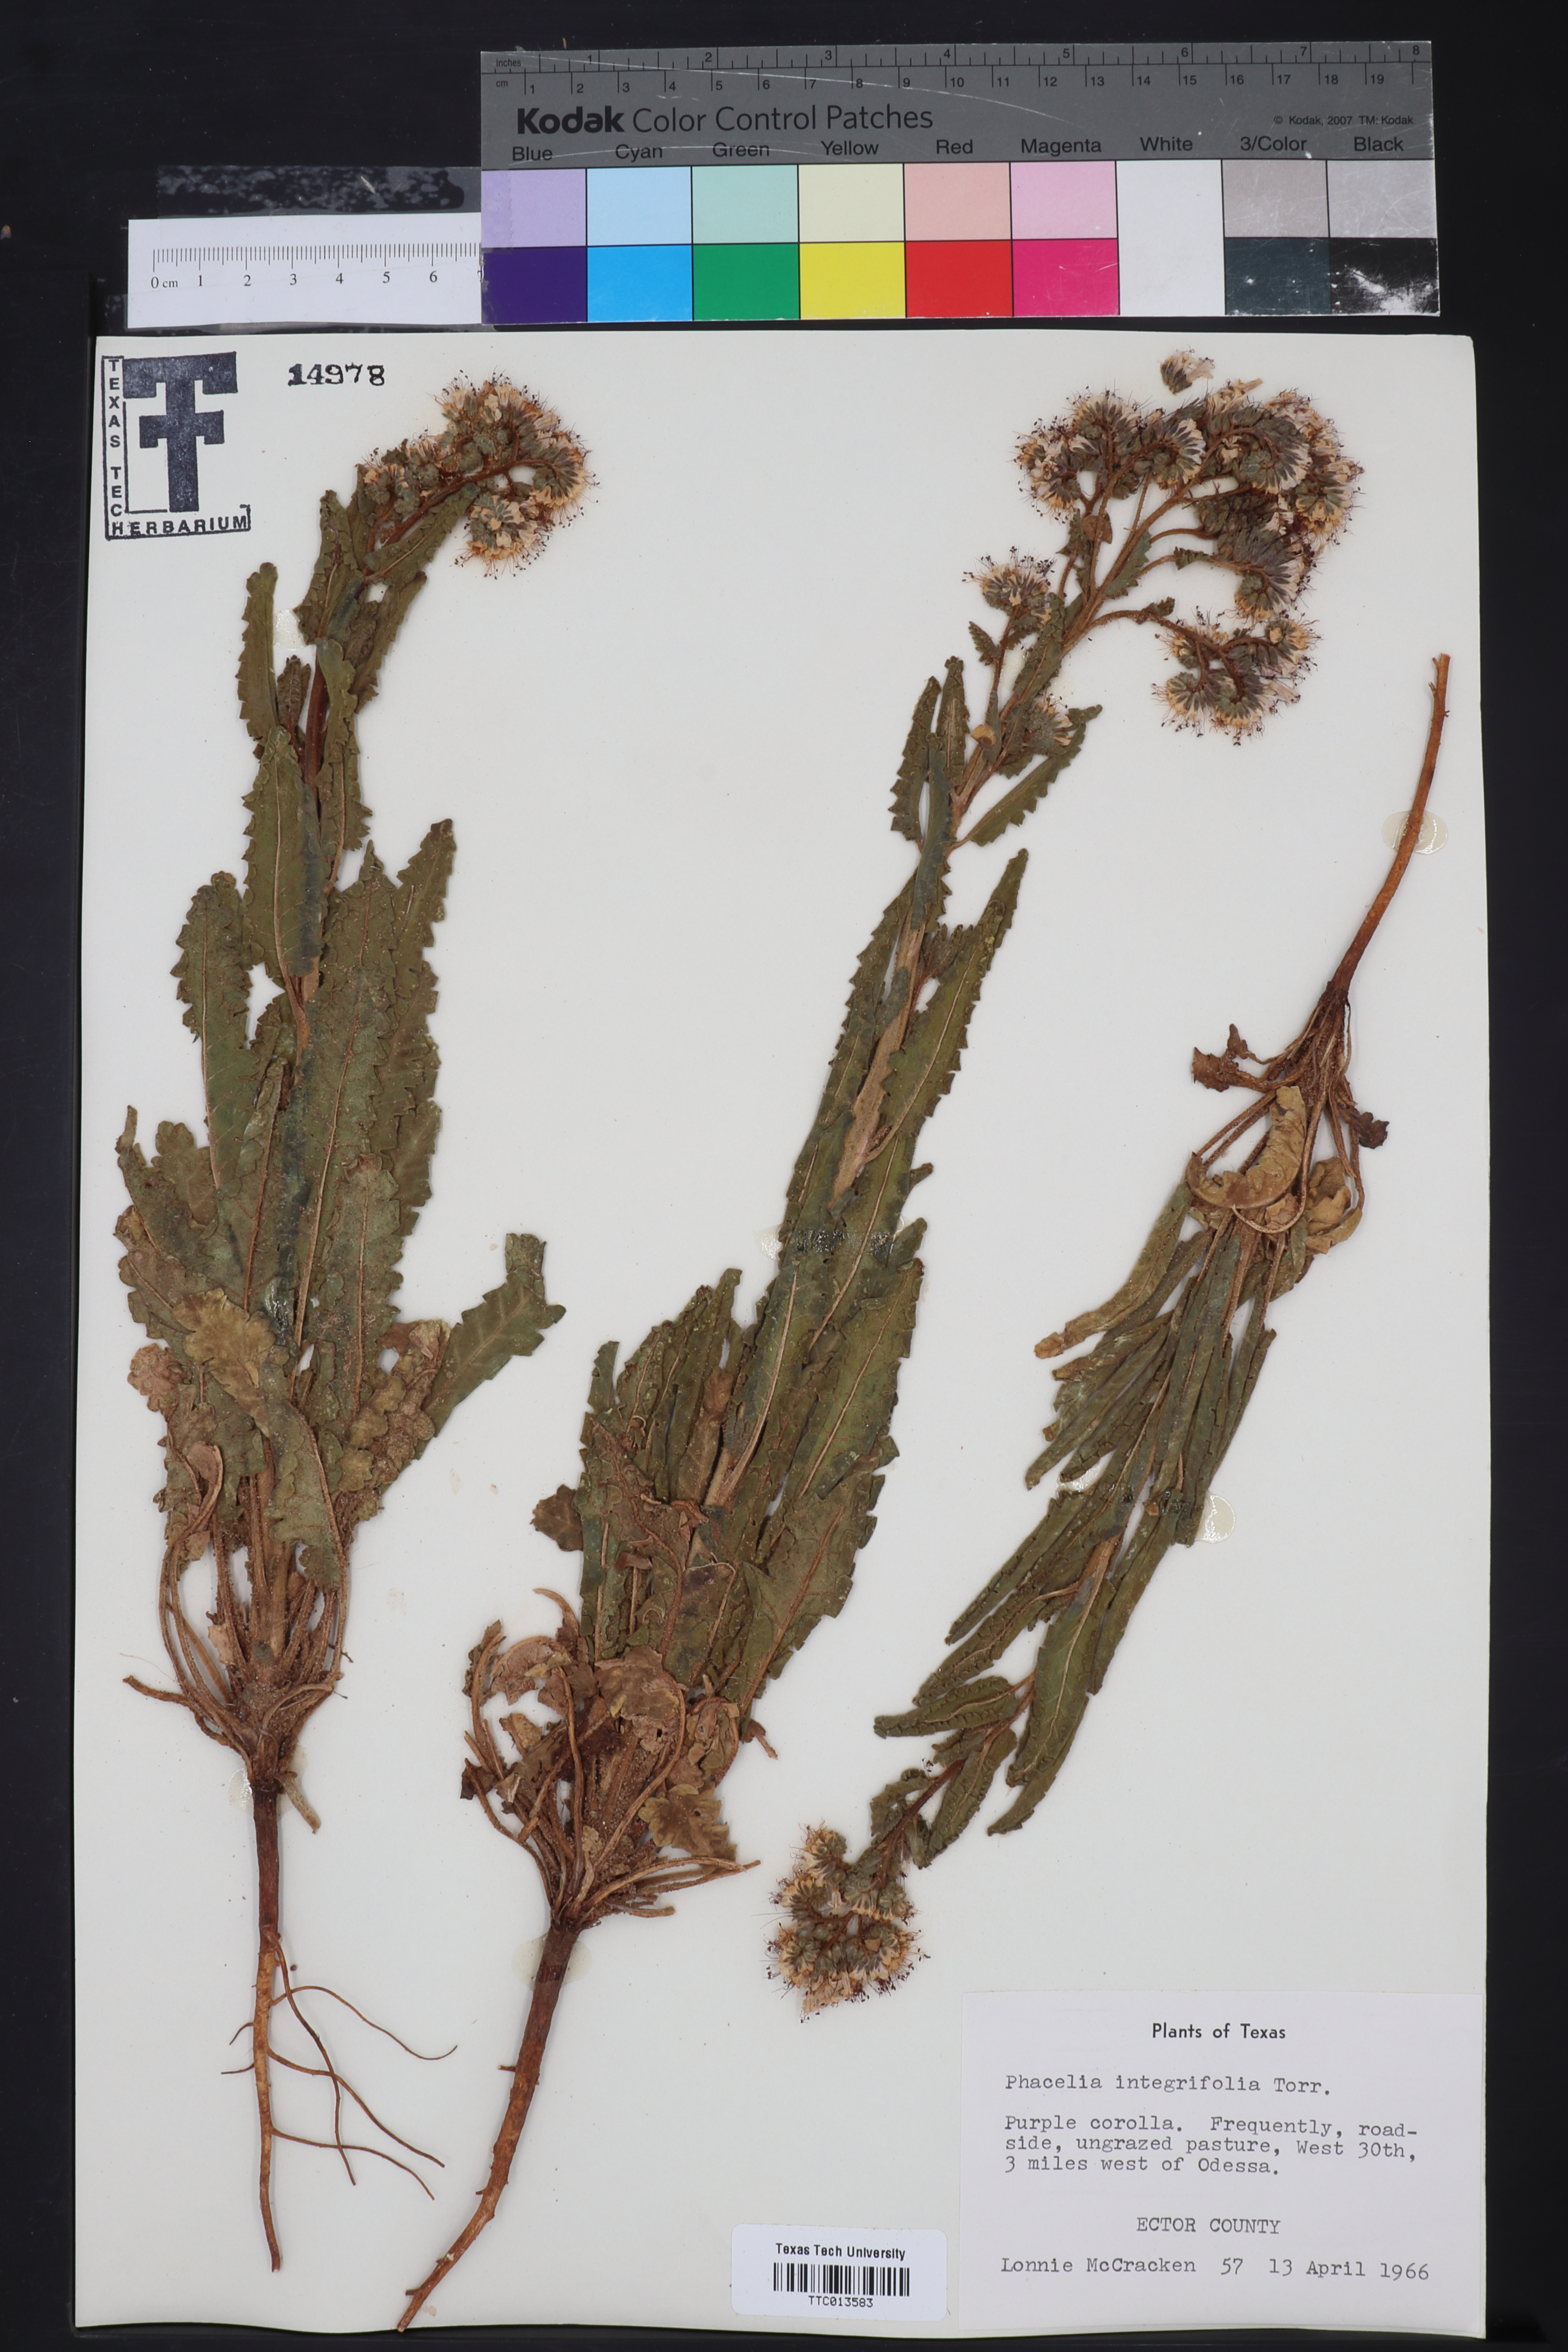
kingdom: Plantae
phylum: Tracheophyta
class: Magnoliopsida
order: Boraginales
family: Hydrophyllaceae
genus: Phacelia
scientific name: Phacelia integrifolia
